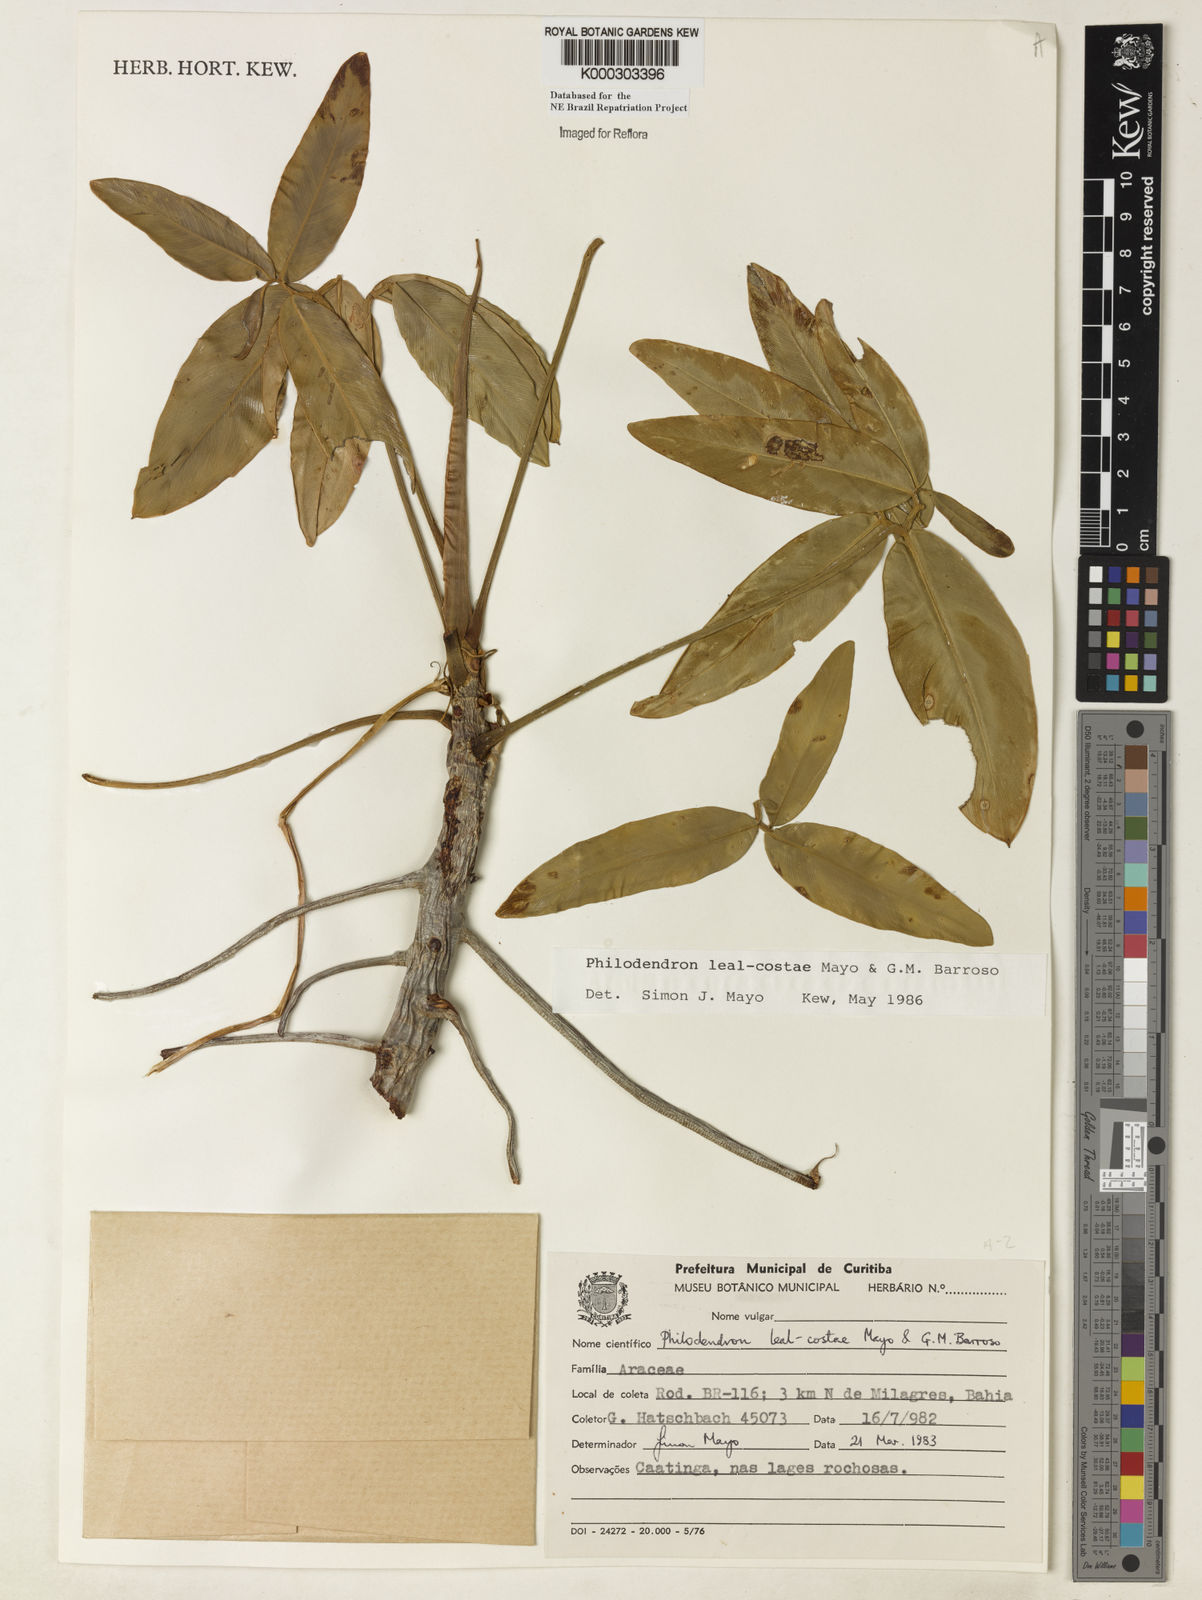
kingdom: Plantae
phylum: Tracheophyta
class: Liliopsida
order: Alismatales
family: Araceae
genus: Thaumatophyllum
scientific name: Thaumatophyllum leal-costae
